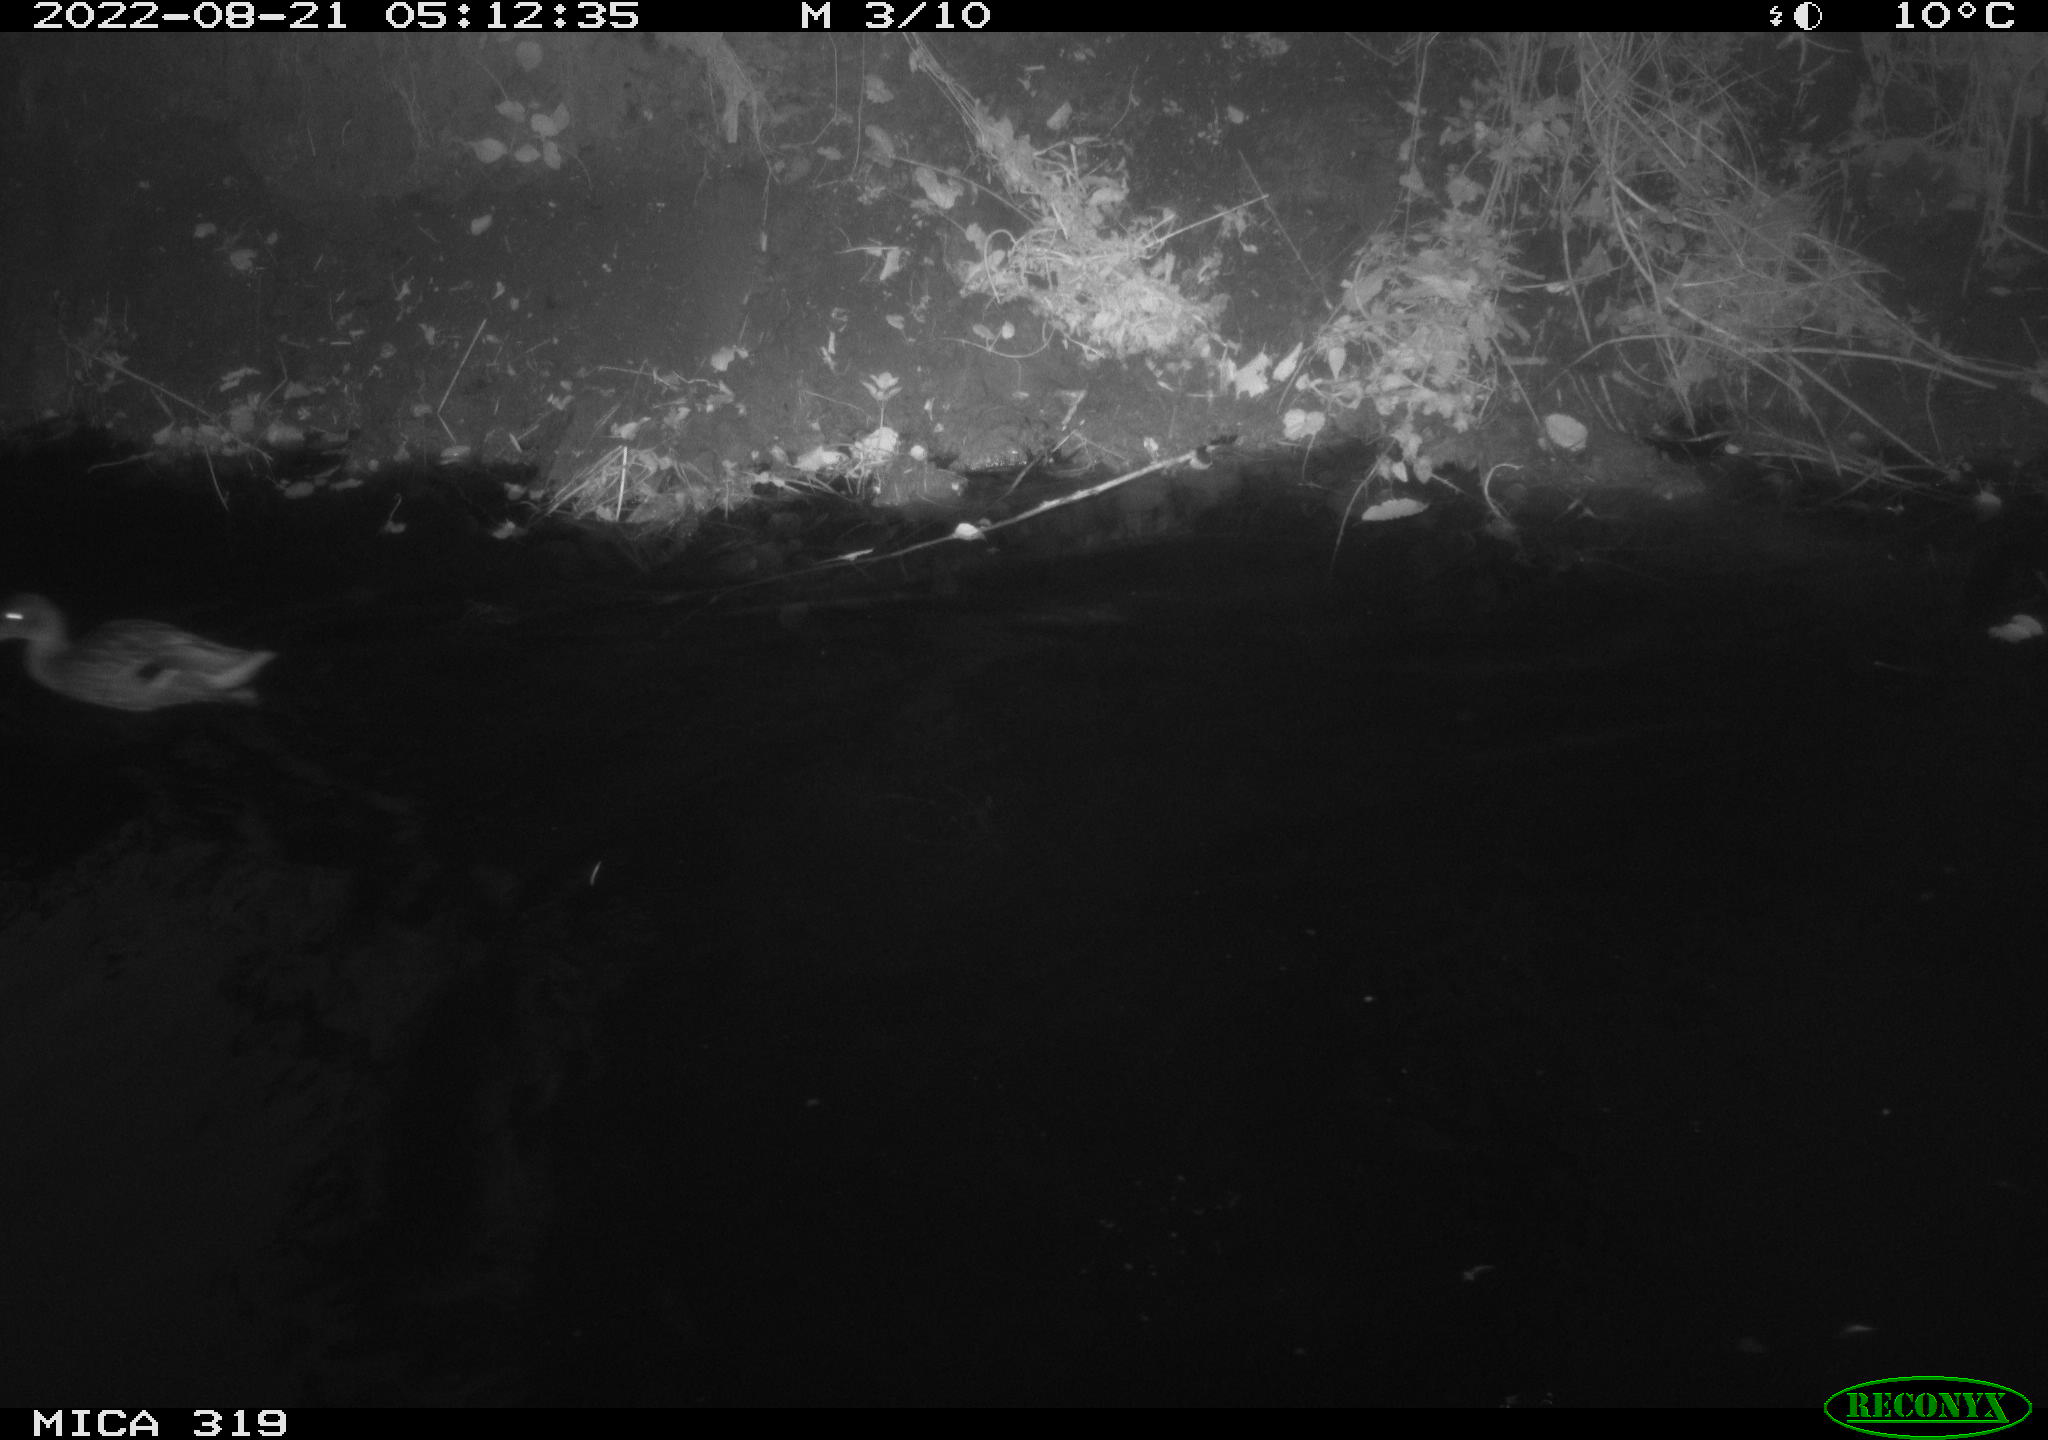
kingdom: Animalia
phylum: Chordata
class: Aves
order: Anseriformes
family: Anatidae
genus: Anas
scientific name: Anas
